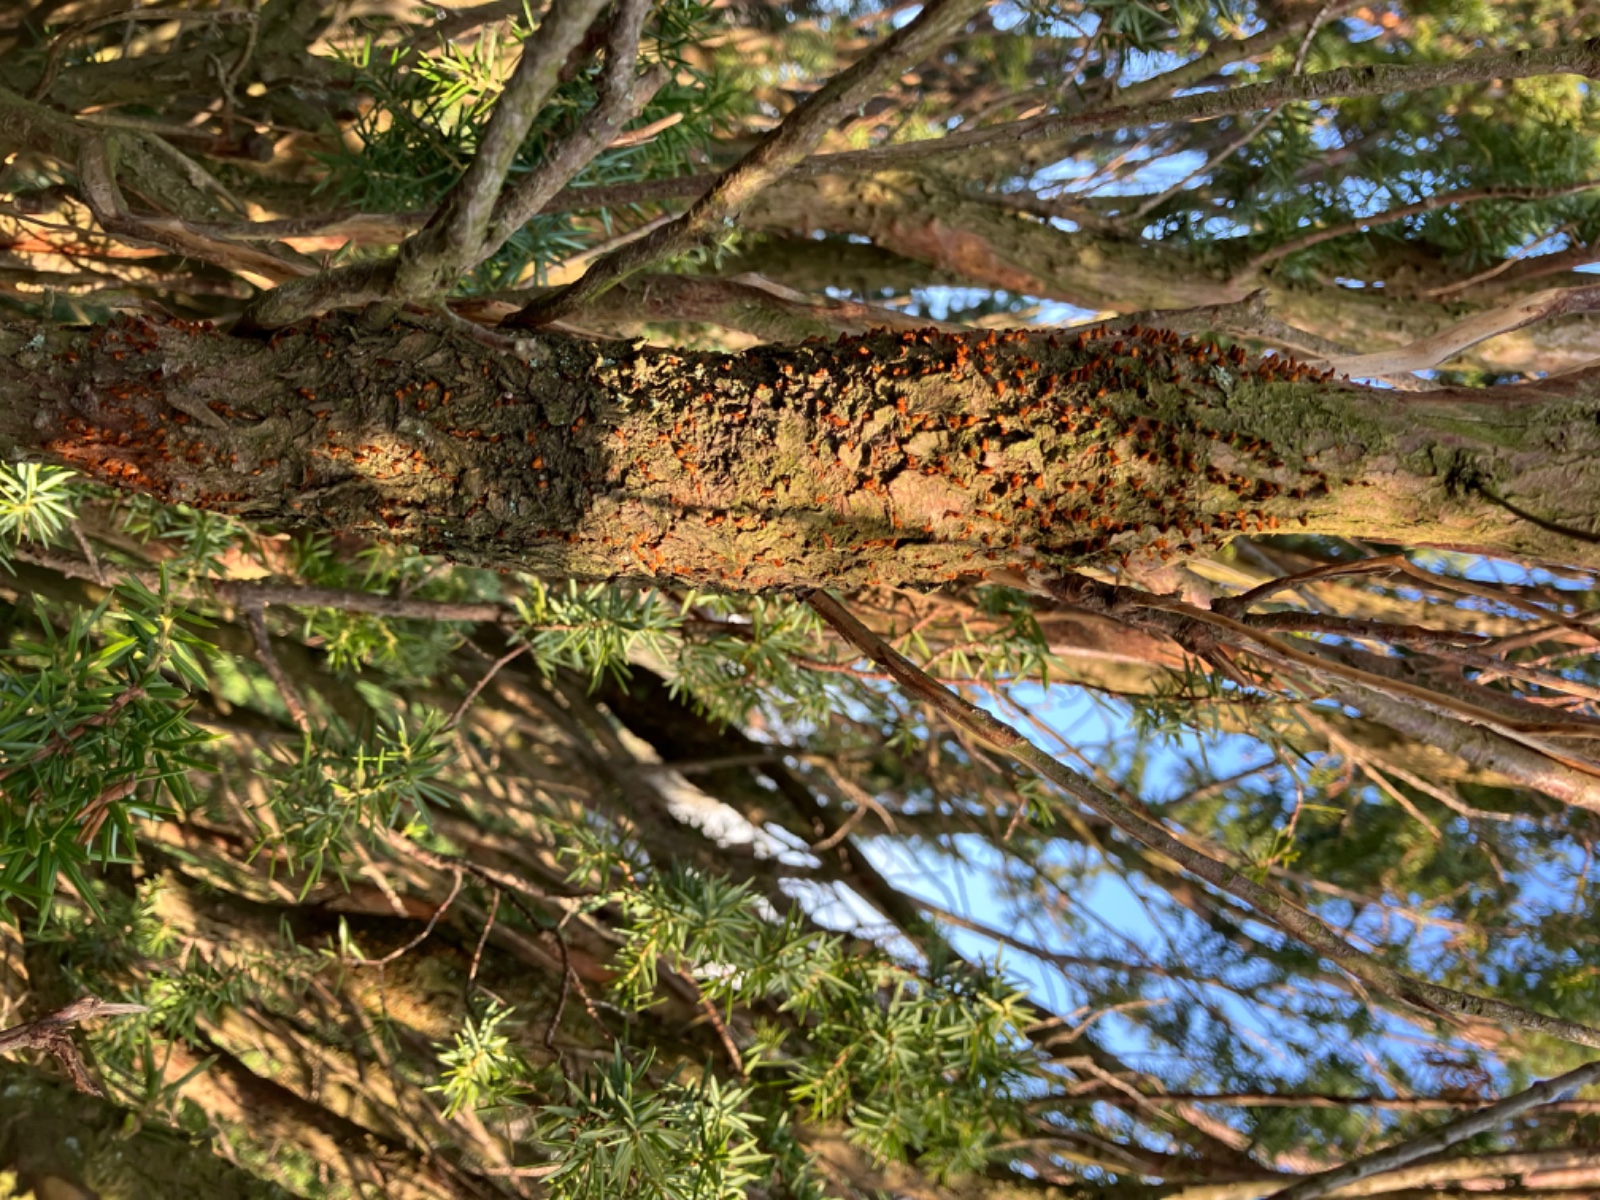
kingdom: Fungi
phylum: Basidiomycota
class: Pucciniomycetes
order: Pucciniales
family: Gymnosporangiaceae
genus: Gymnosporangium
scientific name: Gymnosporangium clavariiforme
